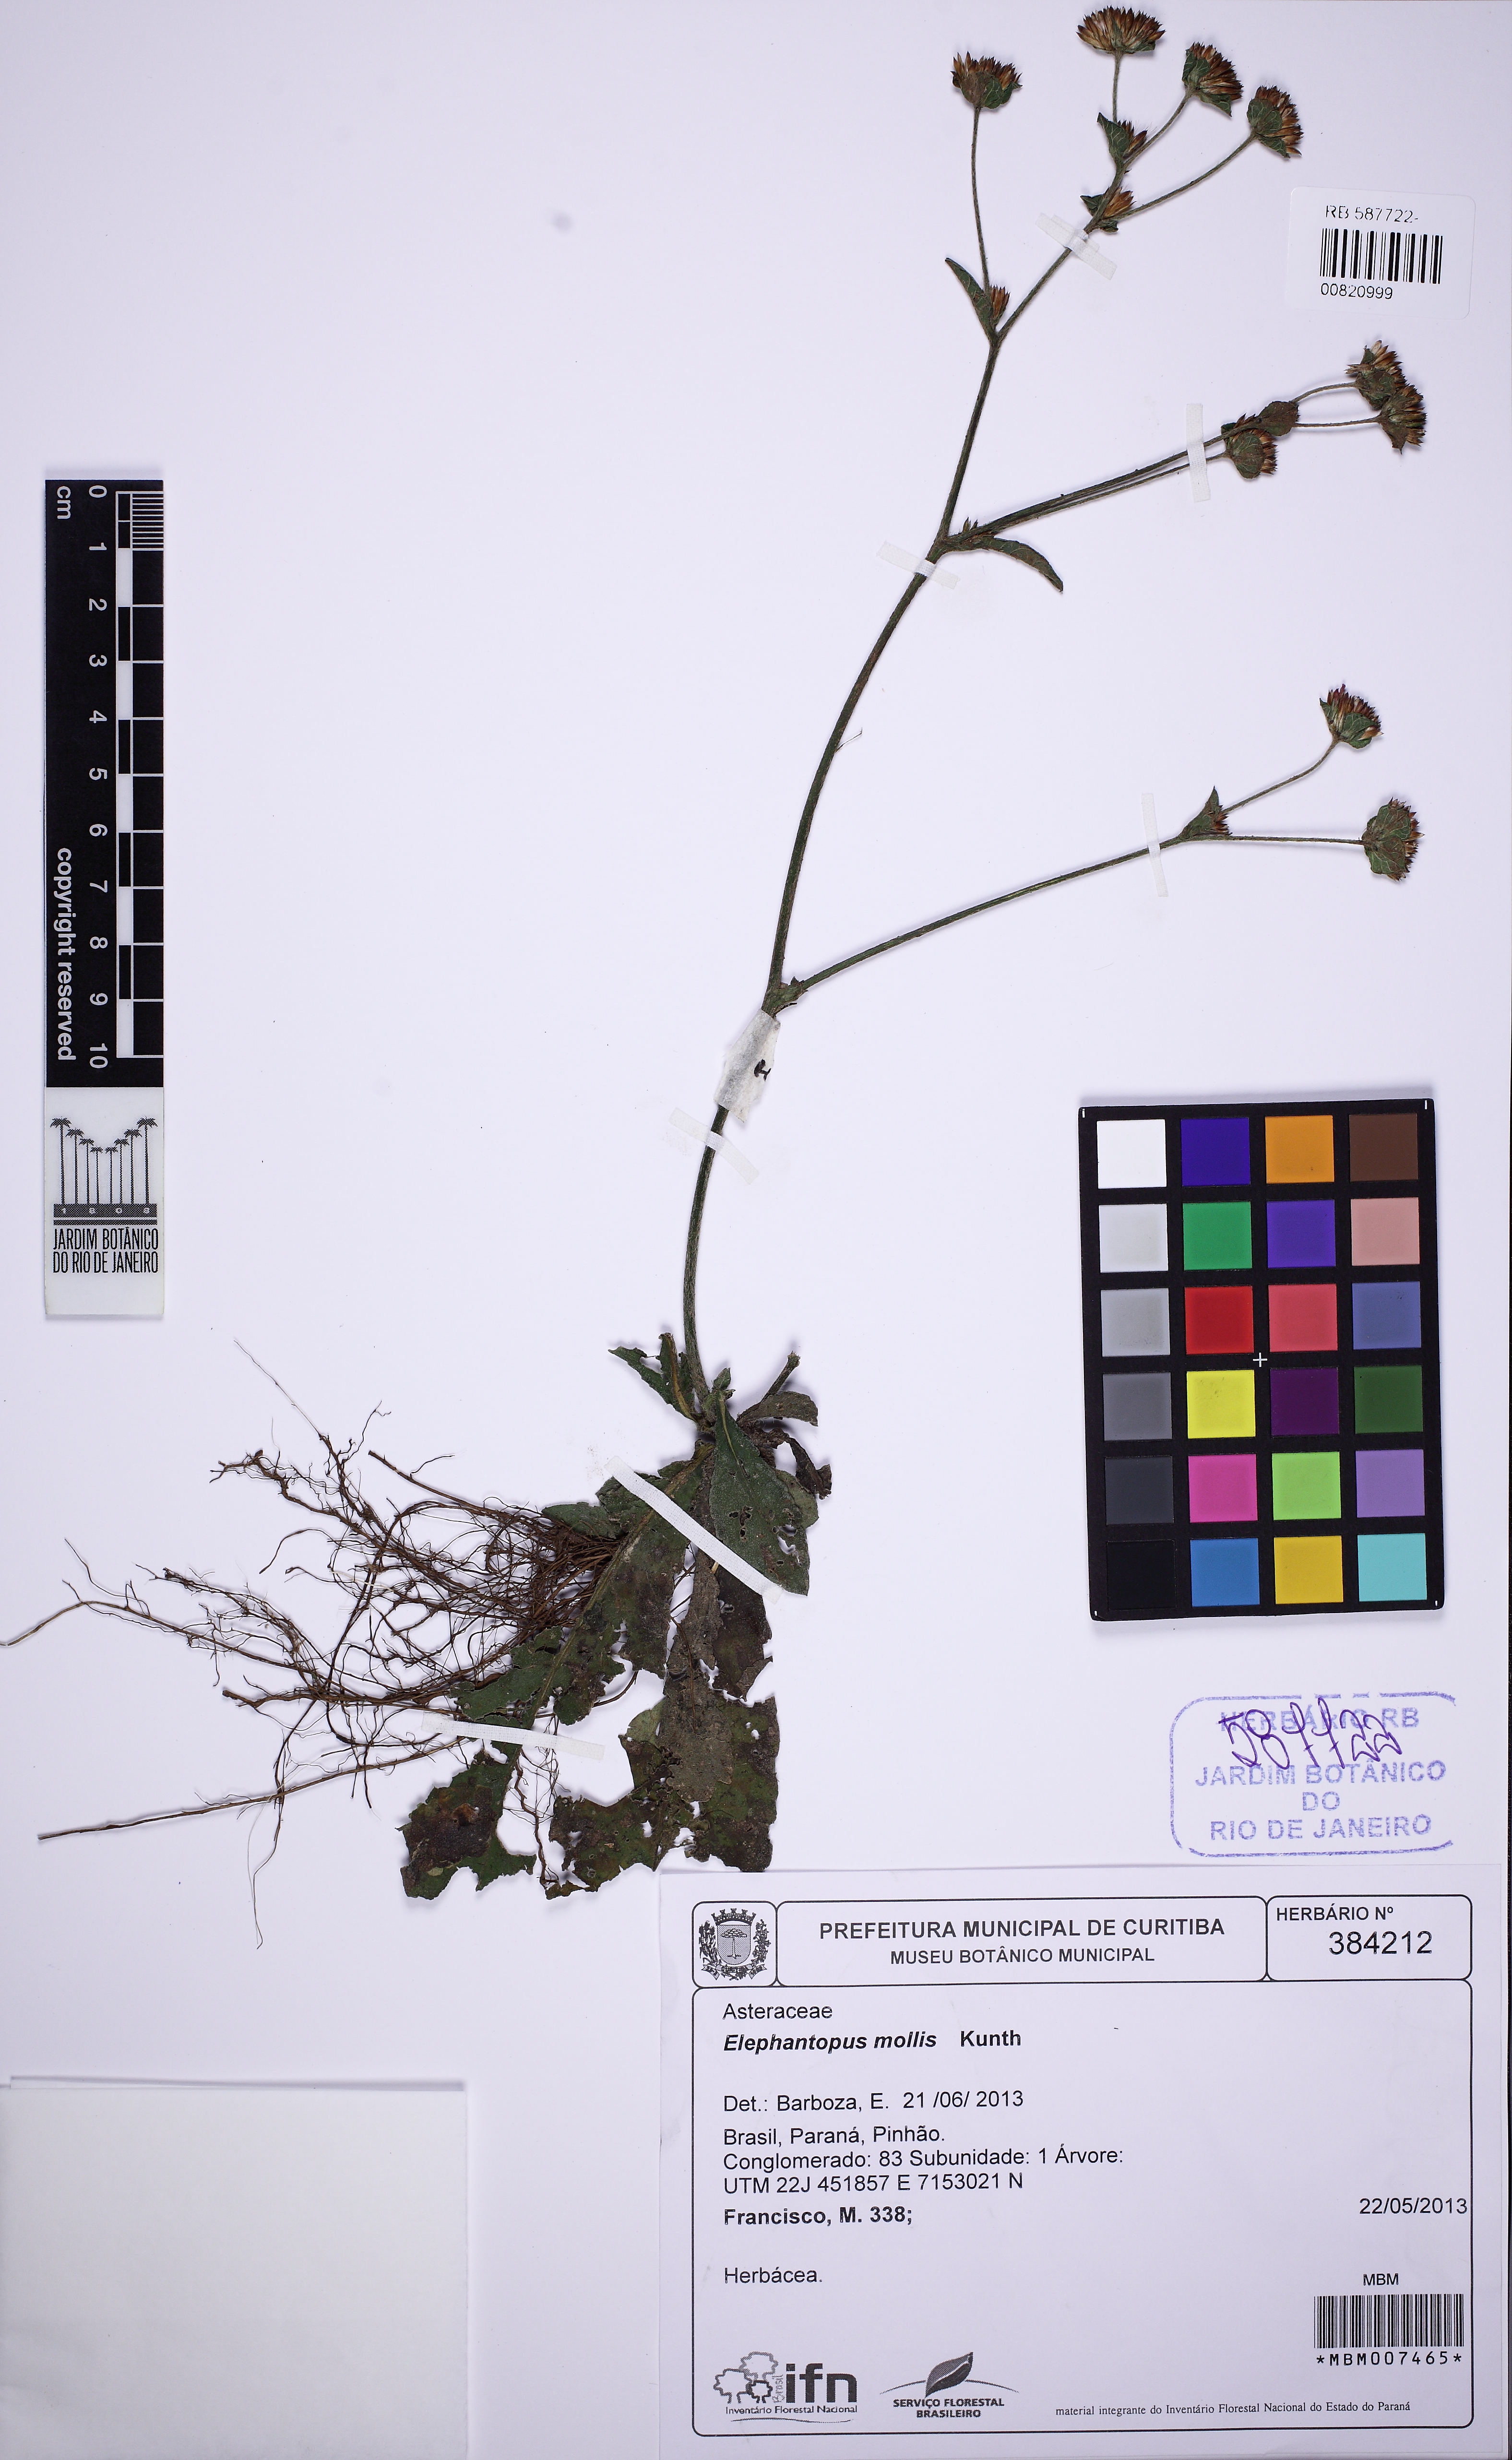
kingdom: Plantae
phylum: Tracheophyta
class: Magnoliopsida
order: Asterales
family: Asteraceae
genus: Elephantopus
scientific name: Elephantopus mollis
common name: Soft elephantsfoot
